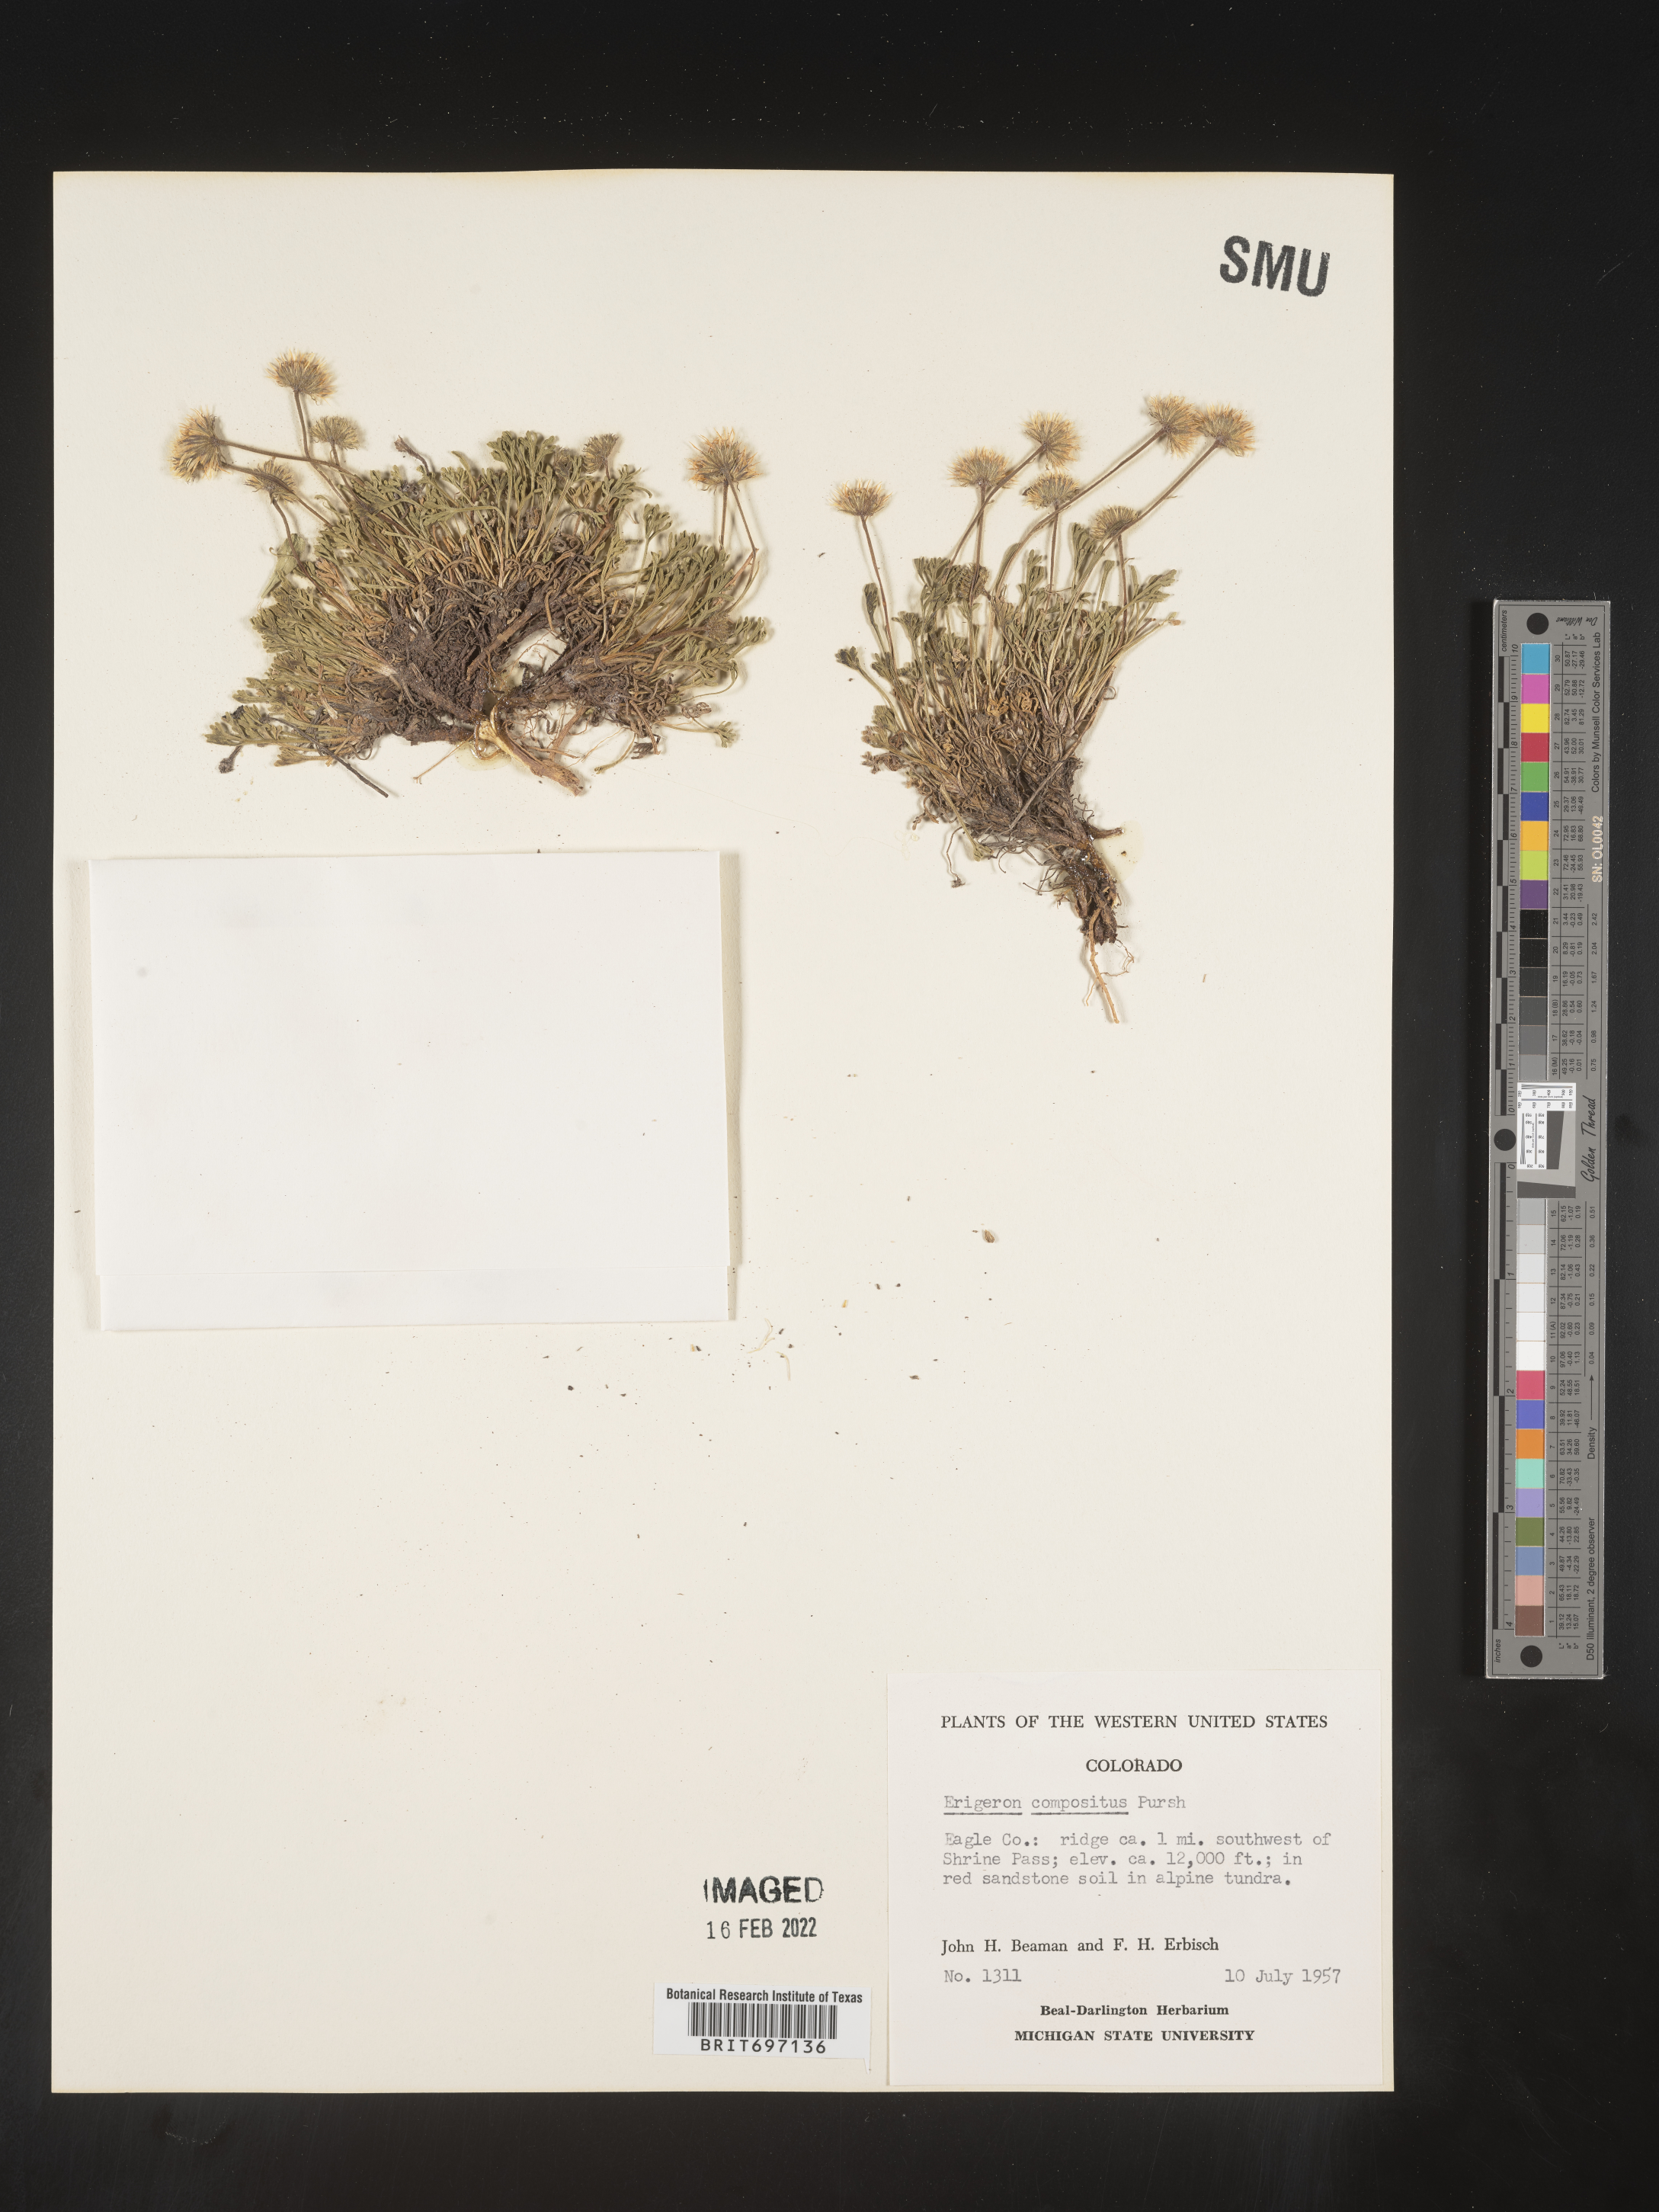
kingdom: Plantae
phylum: Tracheophyta
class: Magnoliopsida
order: Asterales
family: Asteraceae
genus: Erigeron
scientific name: Erigeron compositus
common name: Dwarf mountain fleabane
